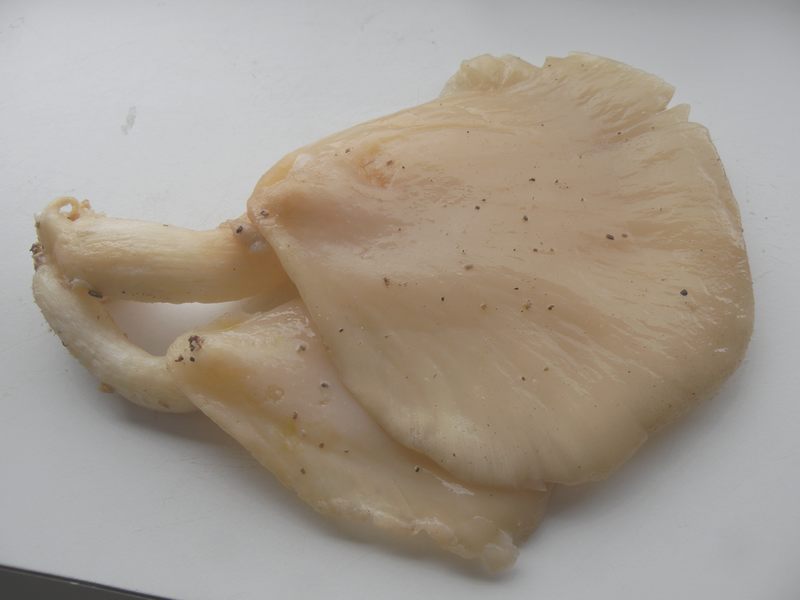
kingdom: Fungi
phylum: Basidiomycota
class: Agaricomycetes
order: Agaricales
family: Pleurotaceae
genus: Pleurotus
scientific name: Pleurotus pulmonarius
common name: sommer-østershat
